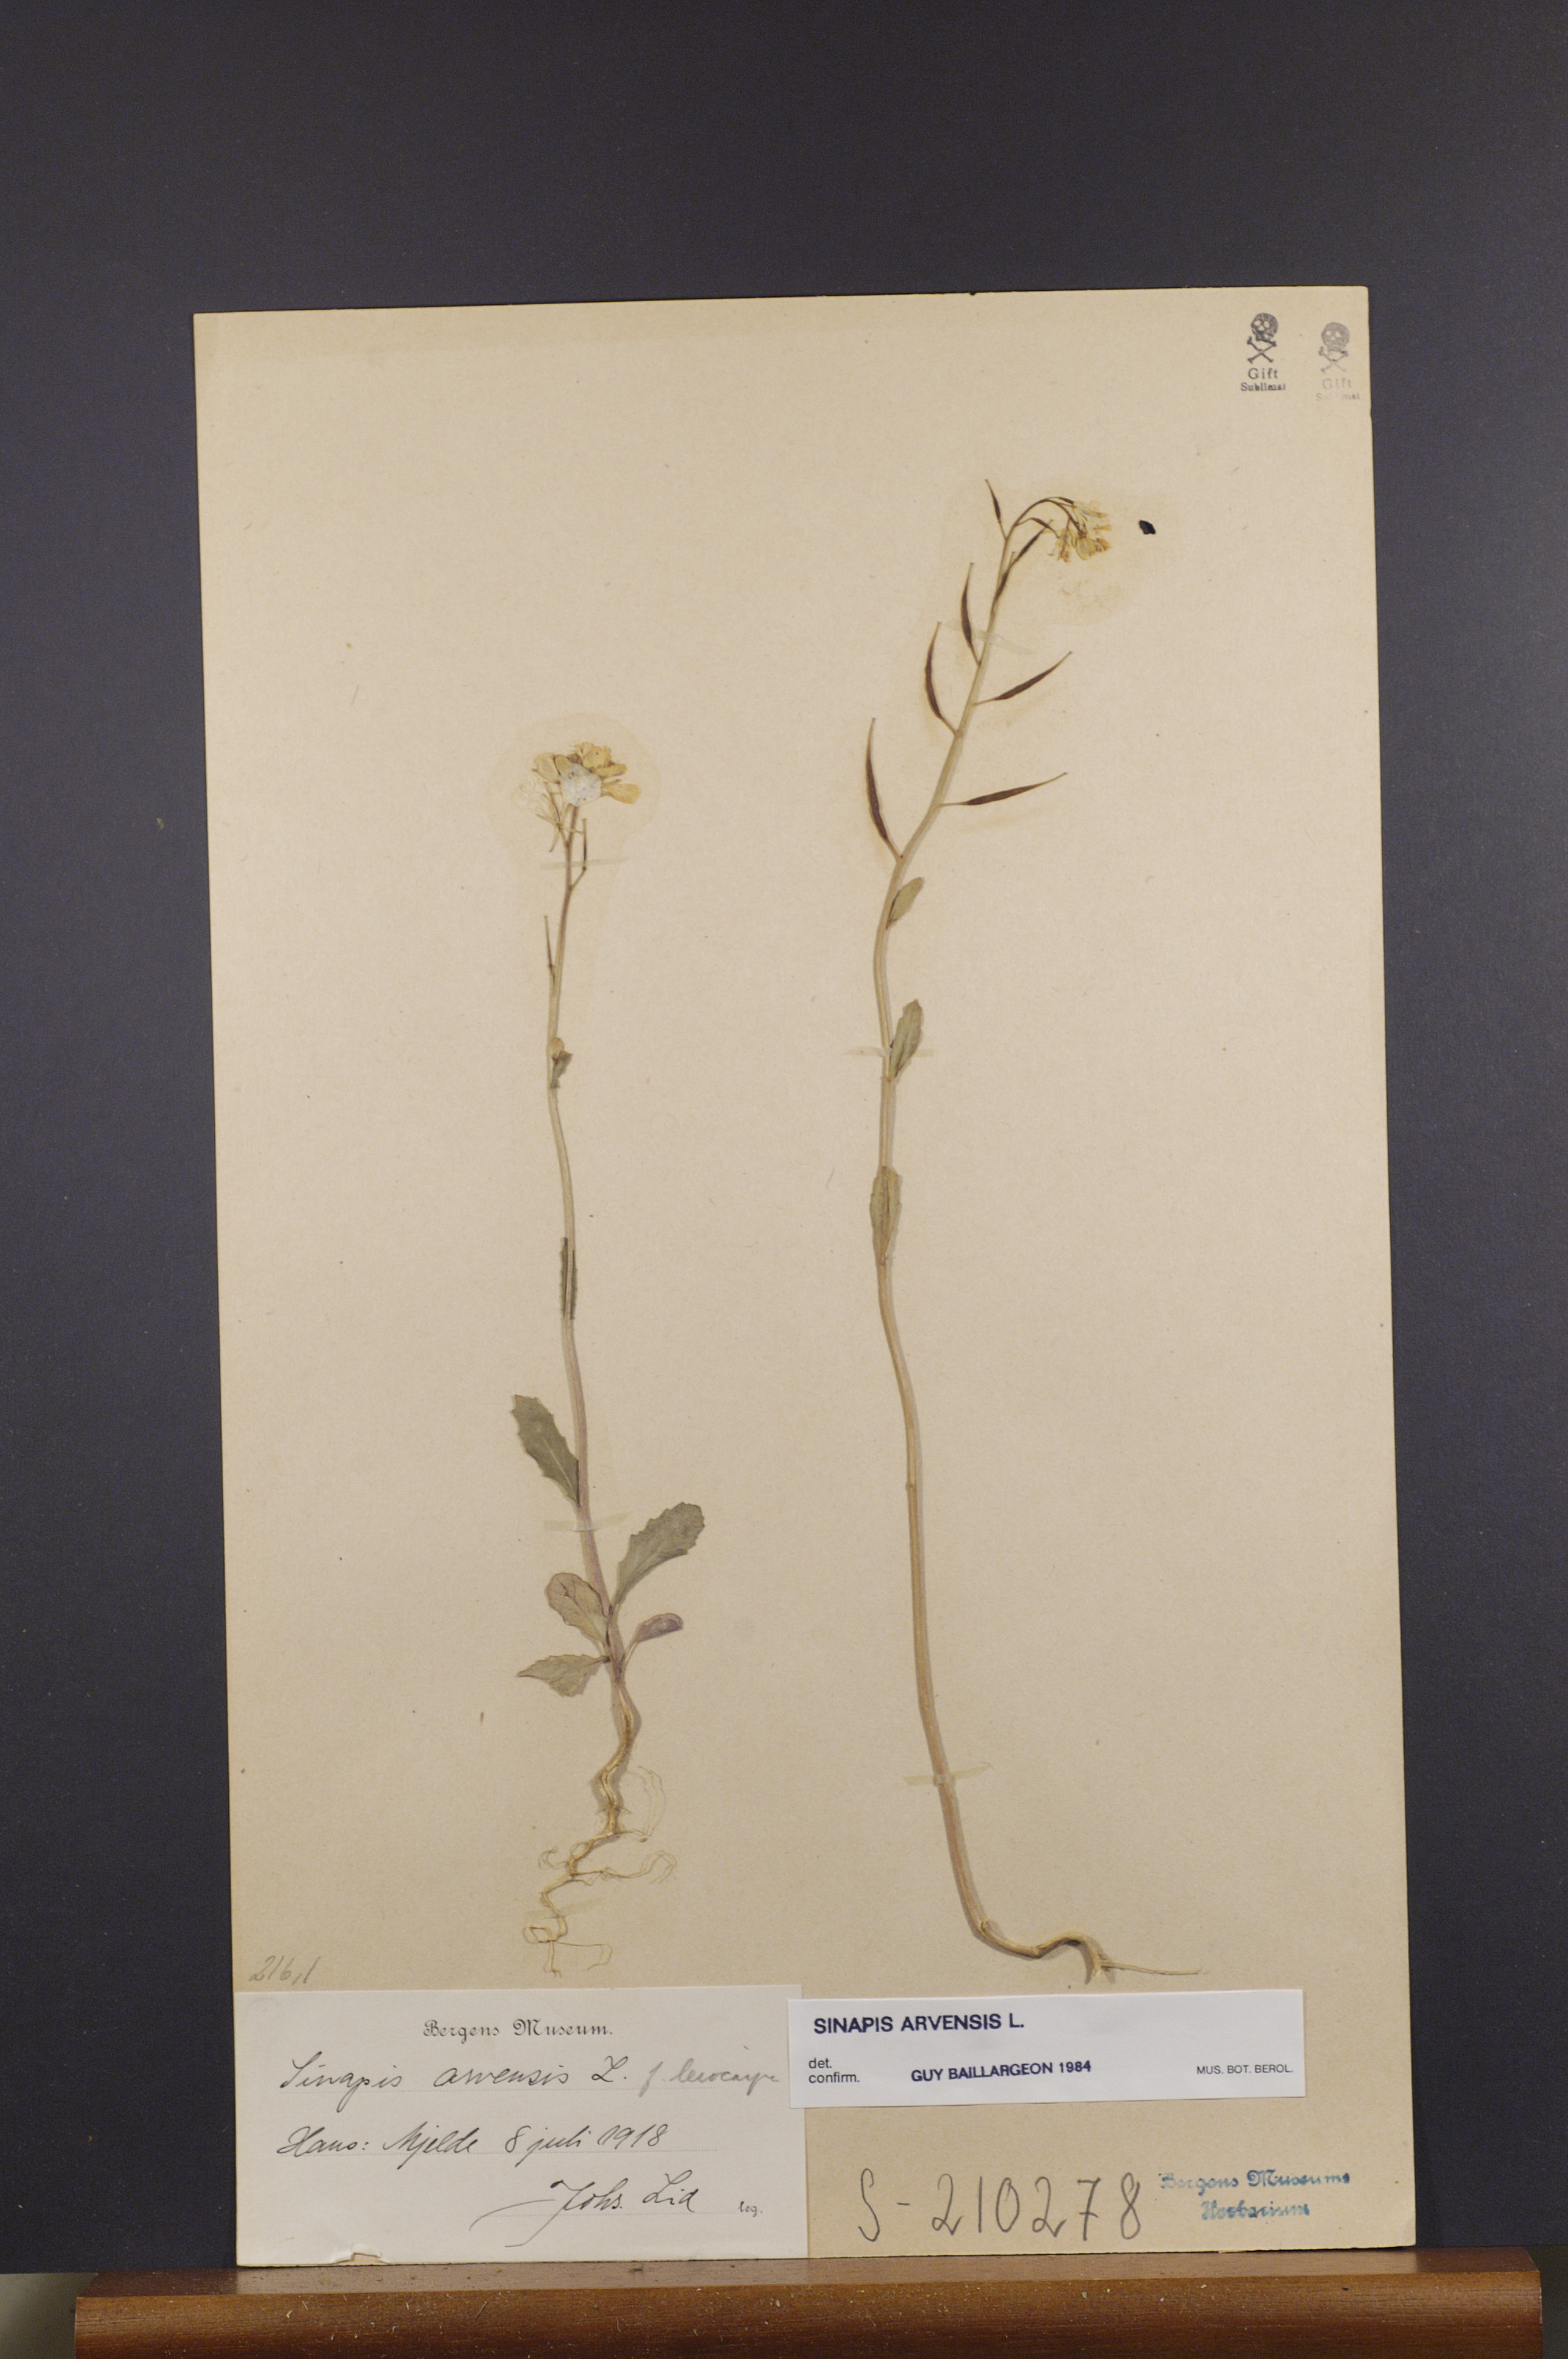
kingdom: Plantae
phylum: Tracheophyta
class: Magnoliopsida
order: Brassicales
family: Brassicaceae
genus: Sinapis
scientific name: Sinapis arvensis
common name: Charlock
